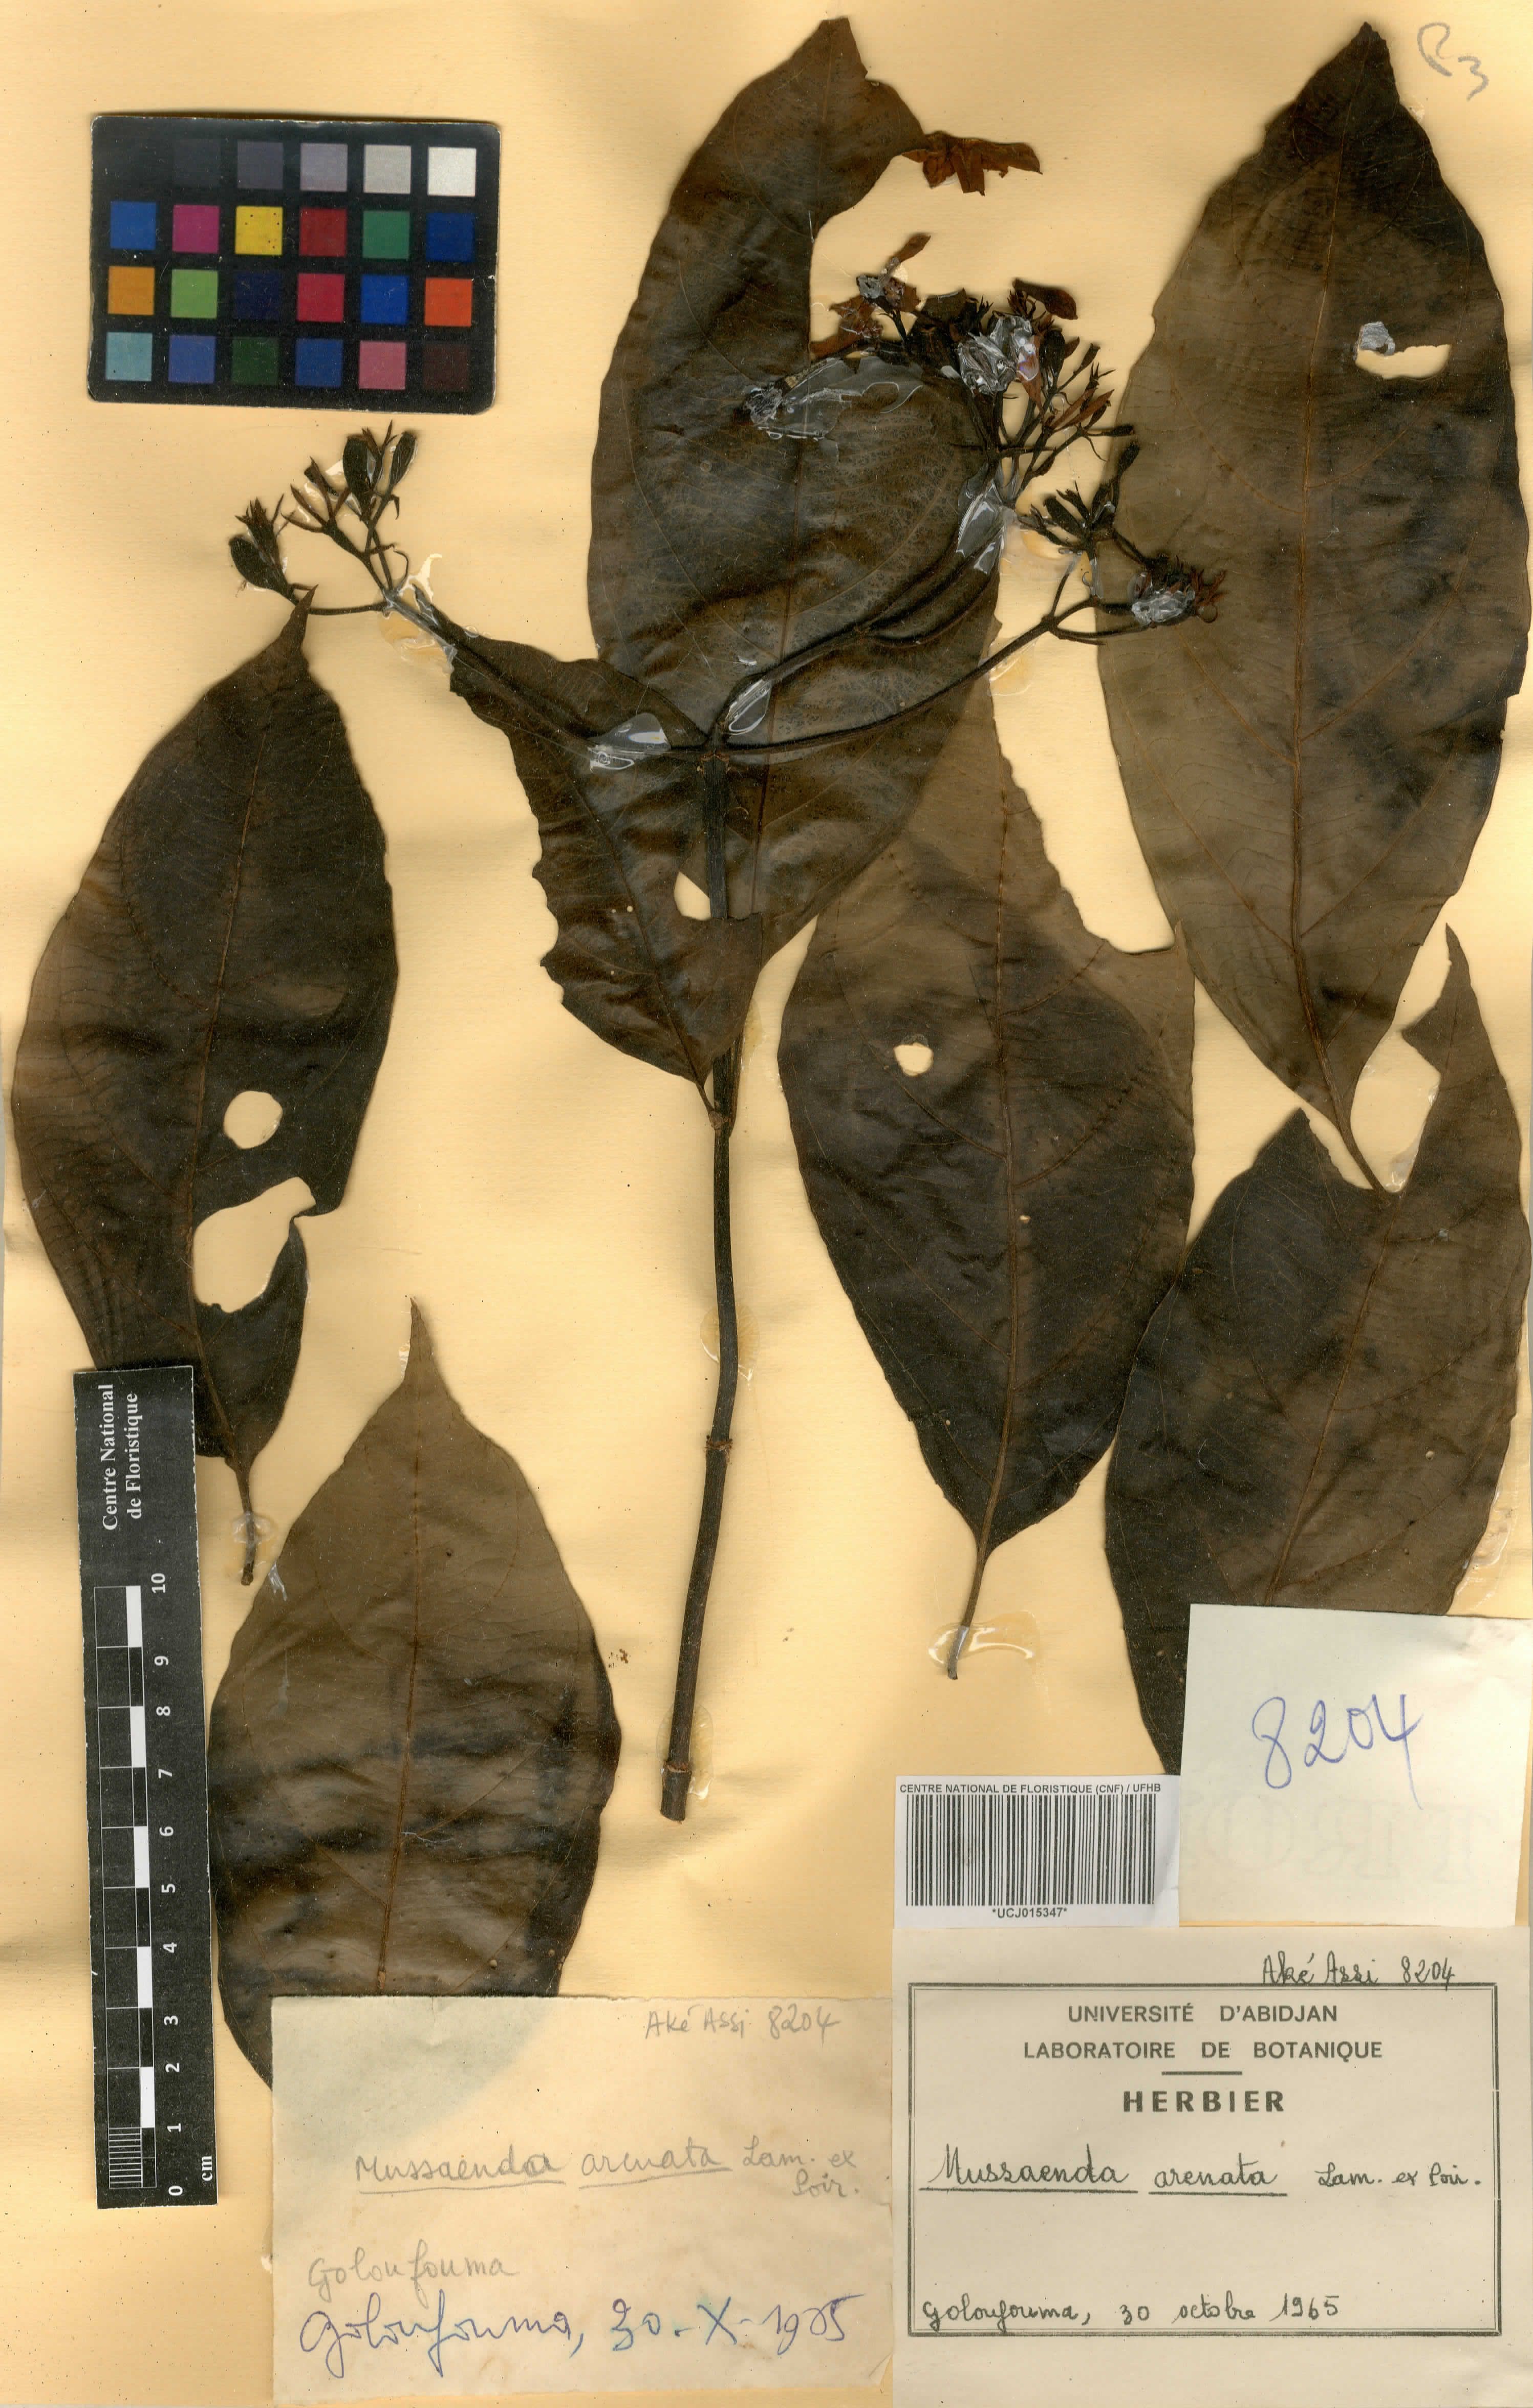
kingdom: Plantae
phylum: Tracheophyta
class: Magnoliopsida
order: Gentianales
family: Rubiaceae
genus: Mussaenda
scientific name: Mussaenda arcuata
